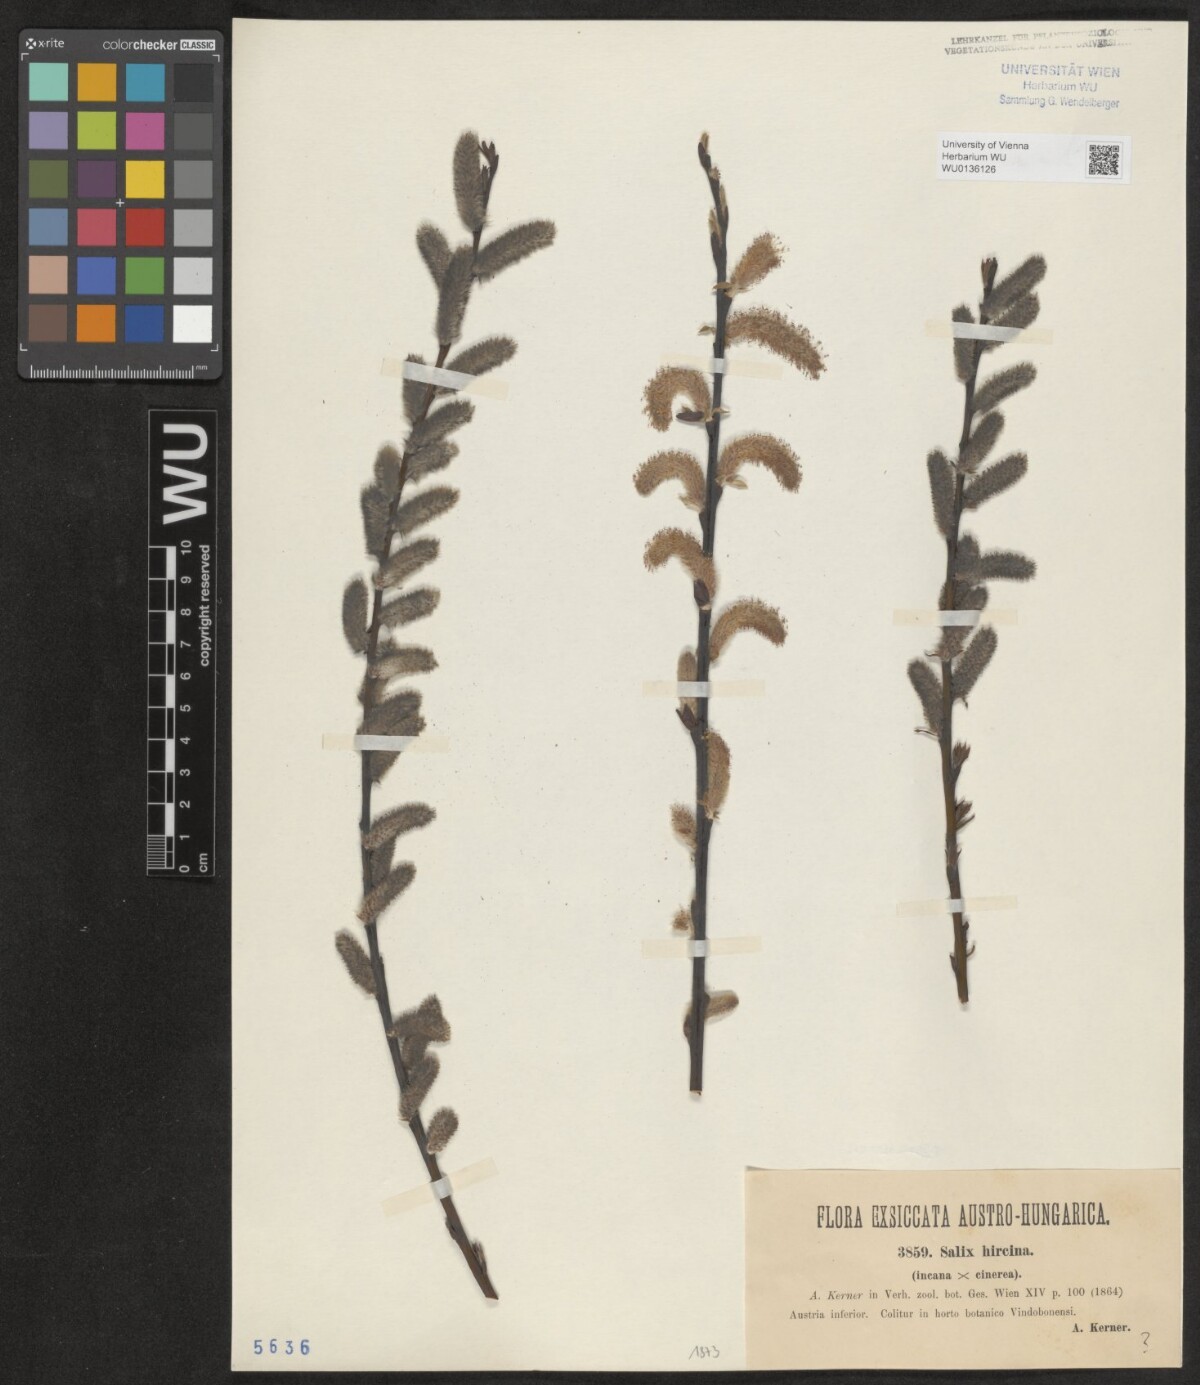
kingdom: Plantae
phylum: Tracheophyta
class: Magnoliopsida
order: Malpighiales
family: Salicaceae
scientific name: Salicaceae
